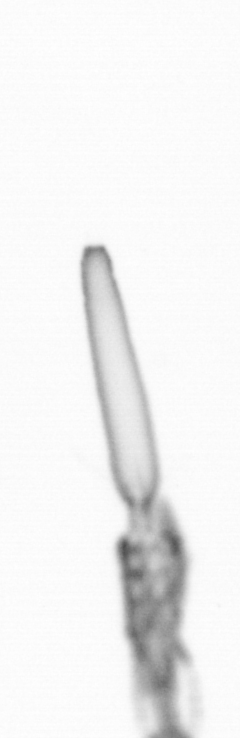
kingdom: Animalia
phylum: Arthropoda
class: Copepoda
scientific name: Copepoda
